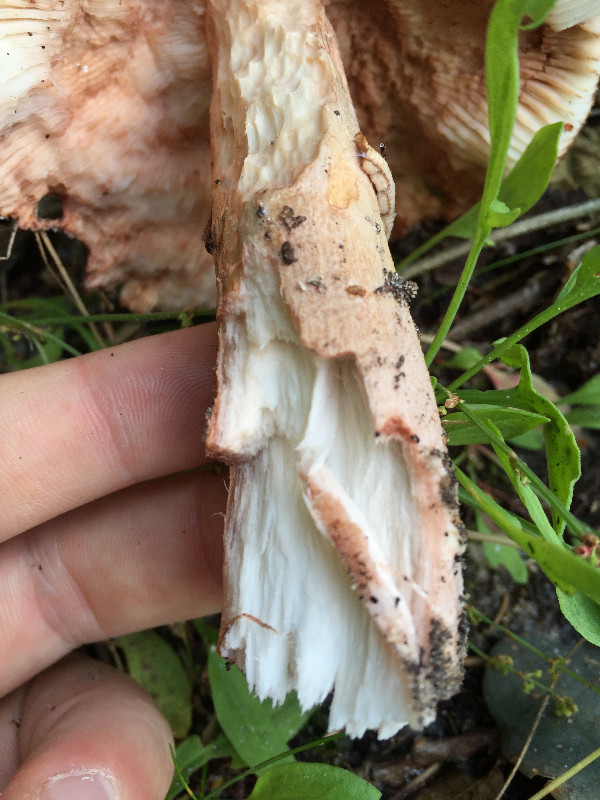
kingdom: Fungi
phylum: Basidiomycota
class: Agaricomycetes
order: Agaricales
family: Amanitaceae
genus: Amanita
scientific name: Amanita rubescens
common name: rødmende fluesvamp
